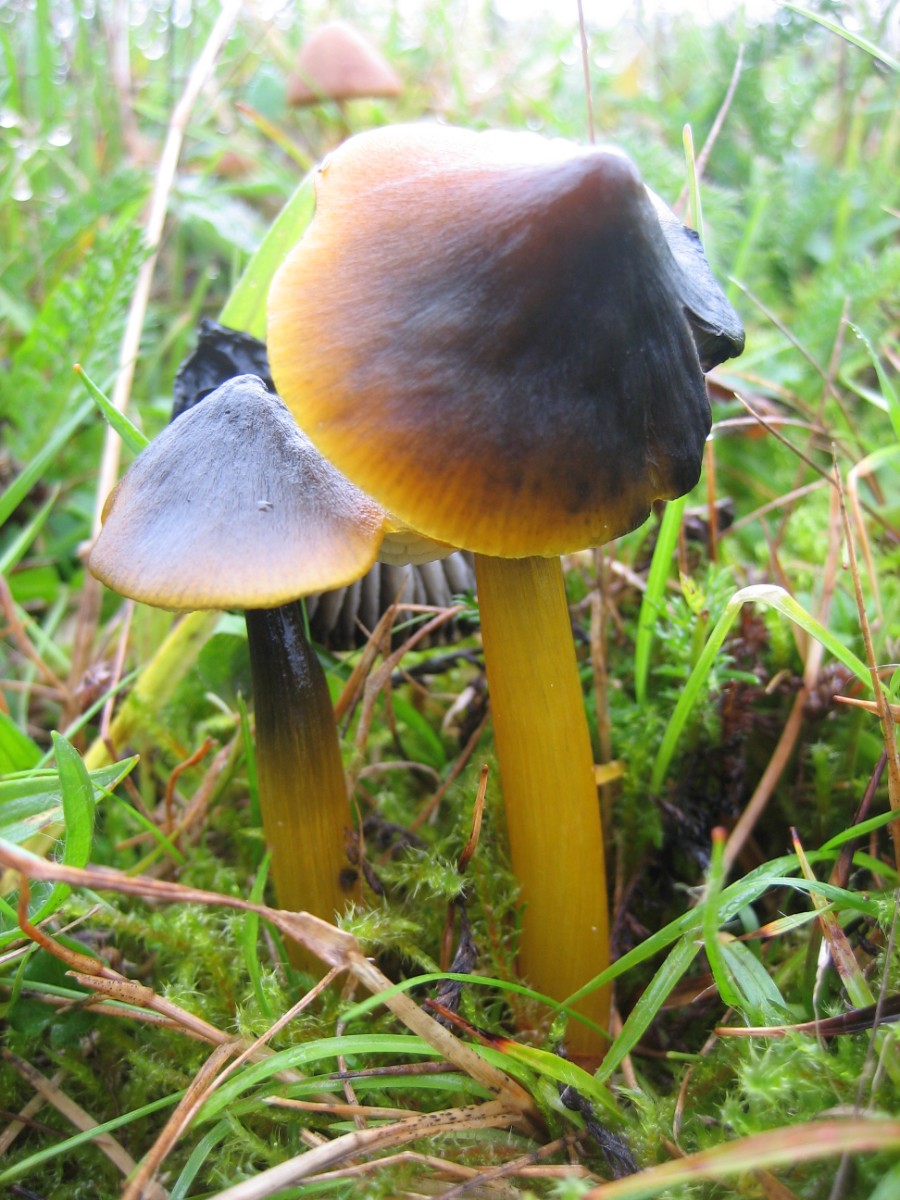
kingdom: Fungi
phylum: Basidiomycota
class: Agaricomycetes
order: Agaricales
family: Hygrophoraceae
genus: Hygrocybe
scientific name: Hygrocybe conica
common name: kegle-vokshat
